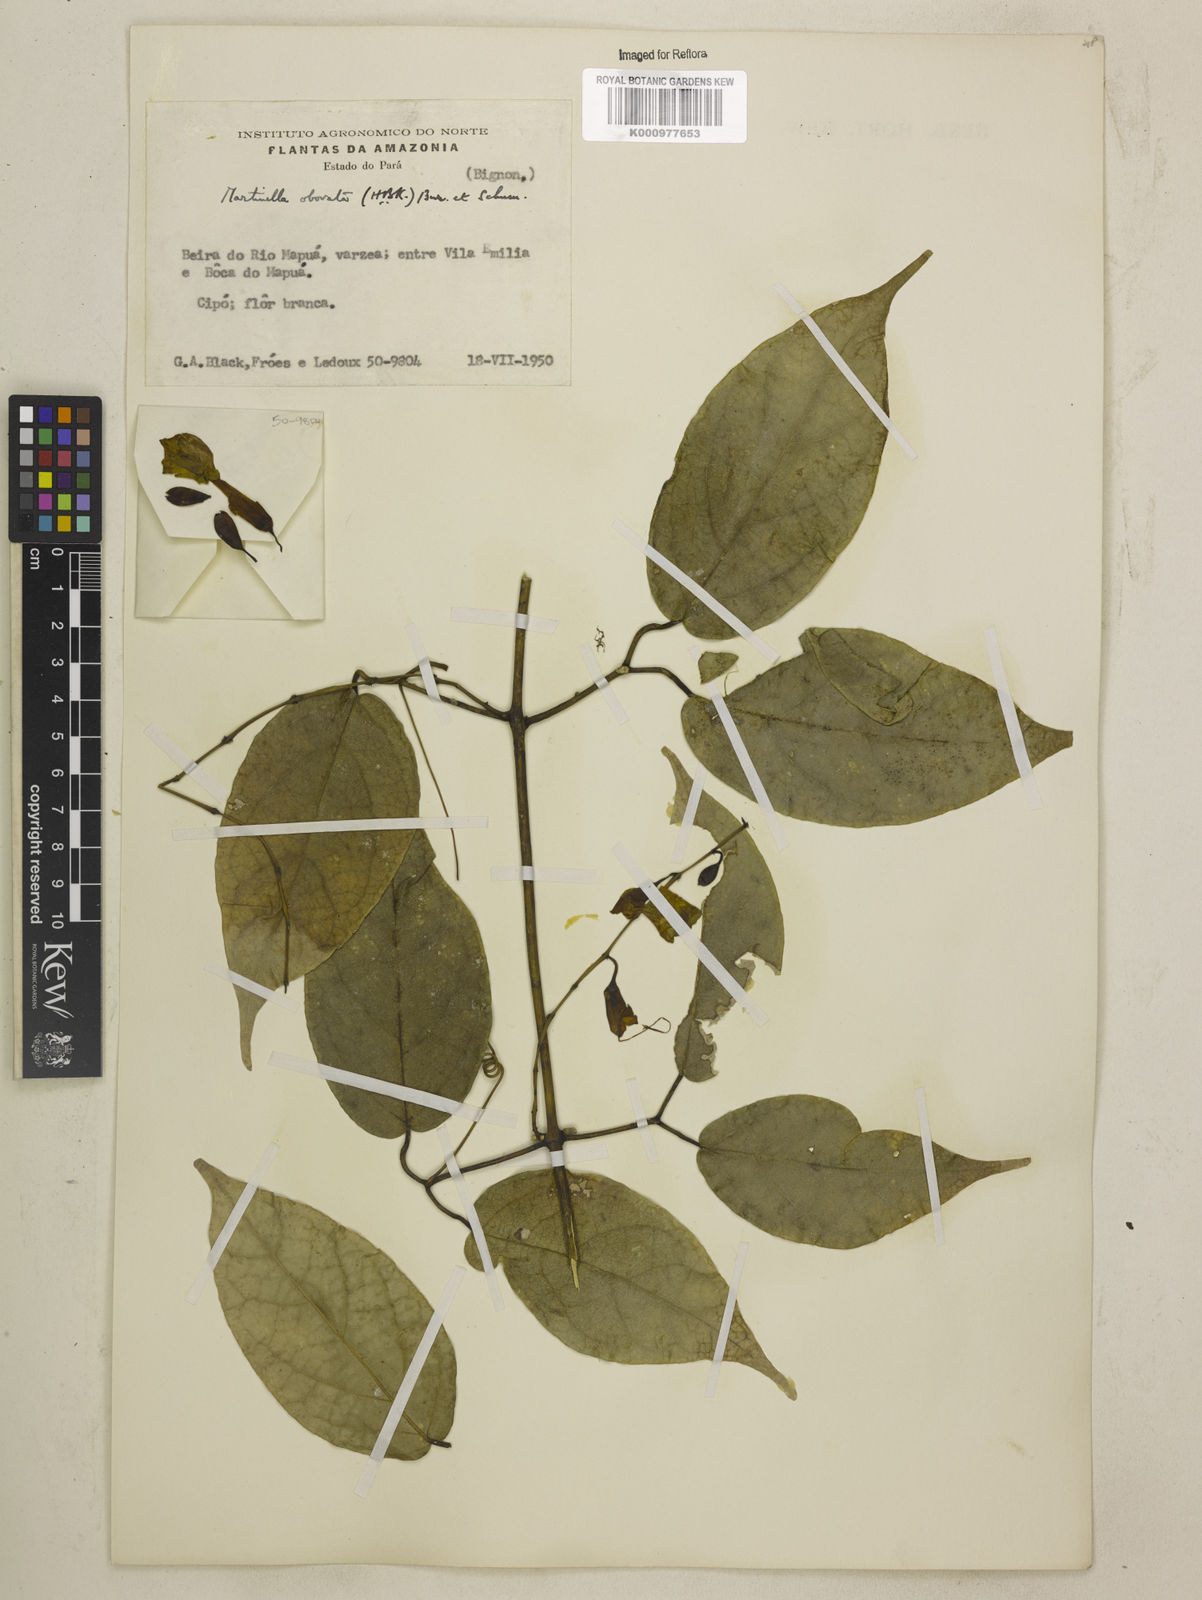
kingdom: Animalia
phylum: Arthropoda
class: Insecta
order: Coleoptera
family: Chrysomelidae
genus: Martinella
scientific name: Martinella obovata
